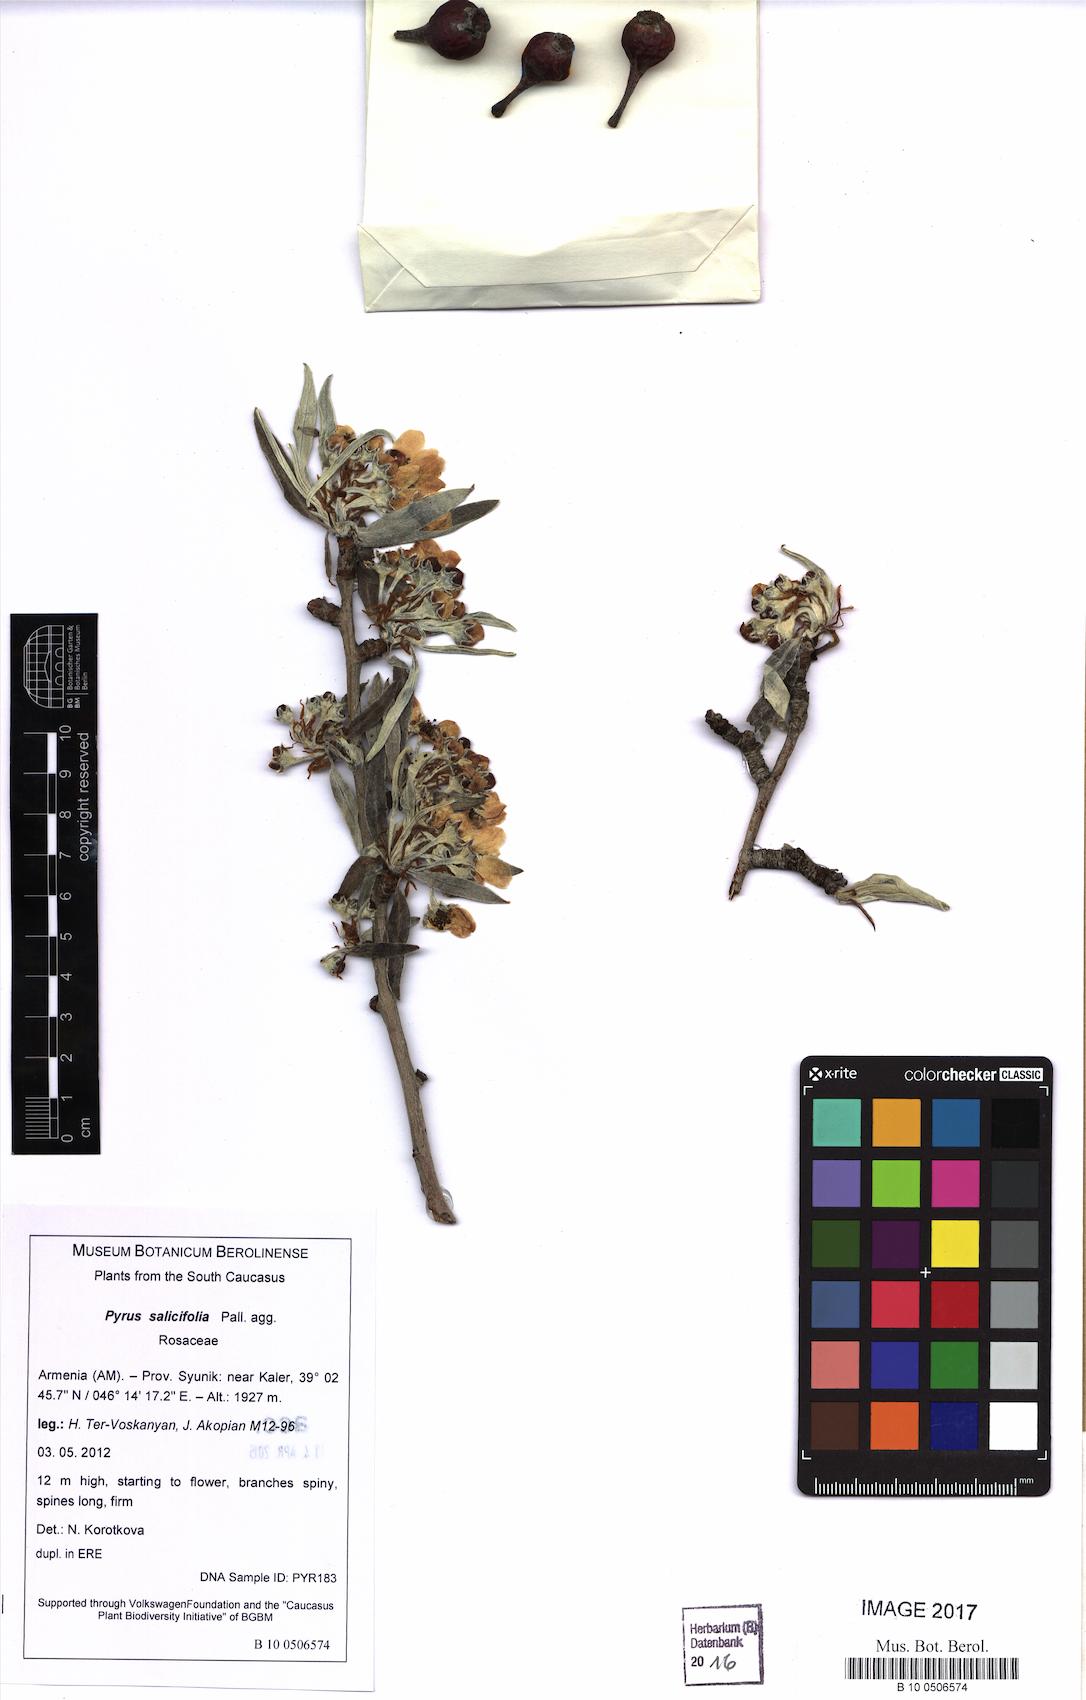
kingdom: Plantae
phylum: Tracheophyta
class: Magnoliopsida
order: Rosales
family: Rosaceae
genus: Pyrus
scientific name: Pyrus salicifolia
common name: Willow-leaved pear
